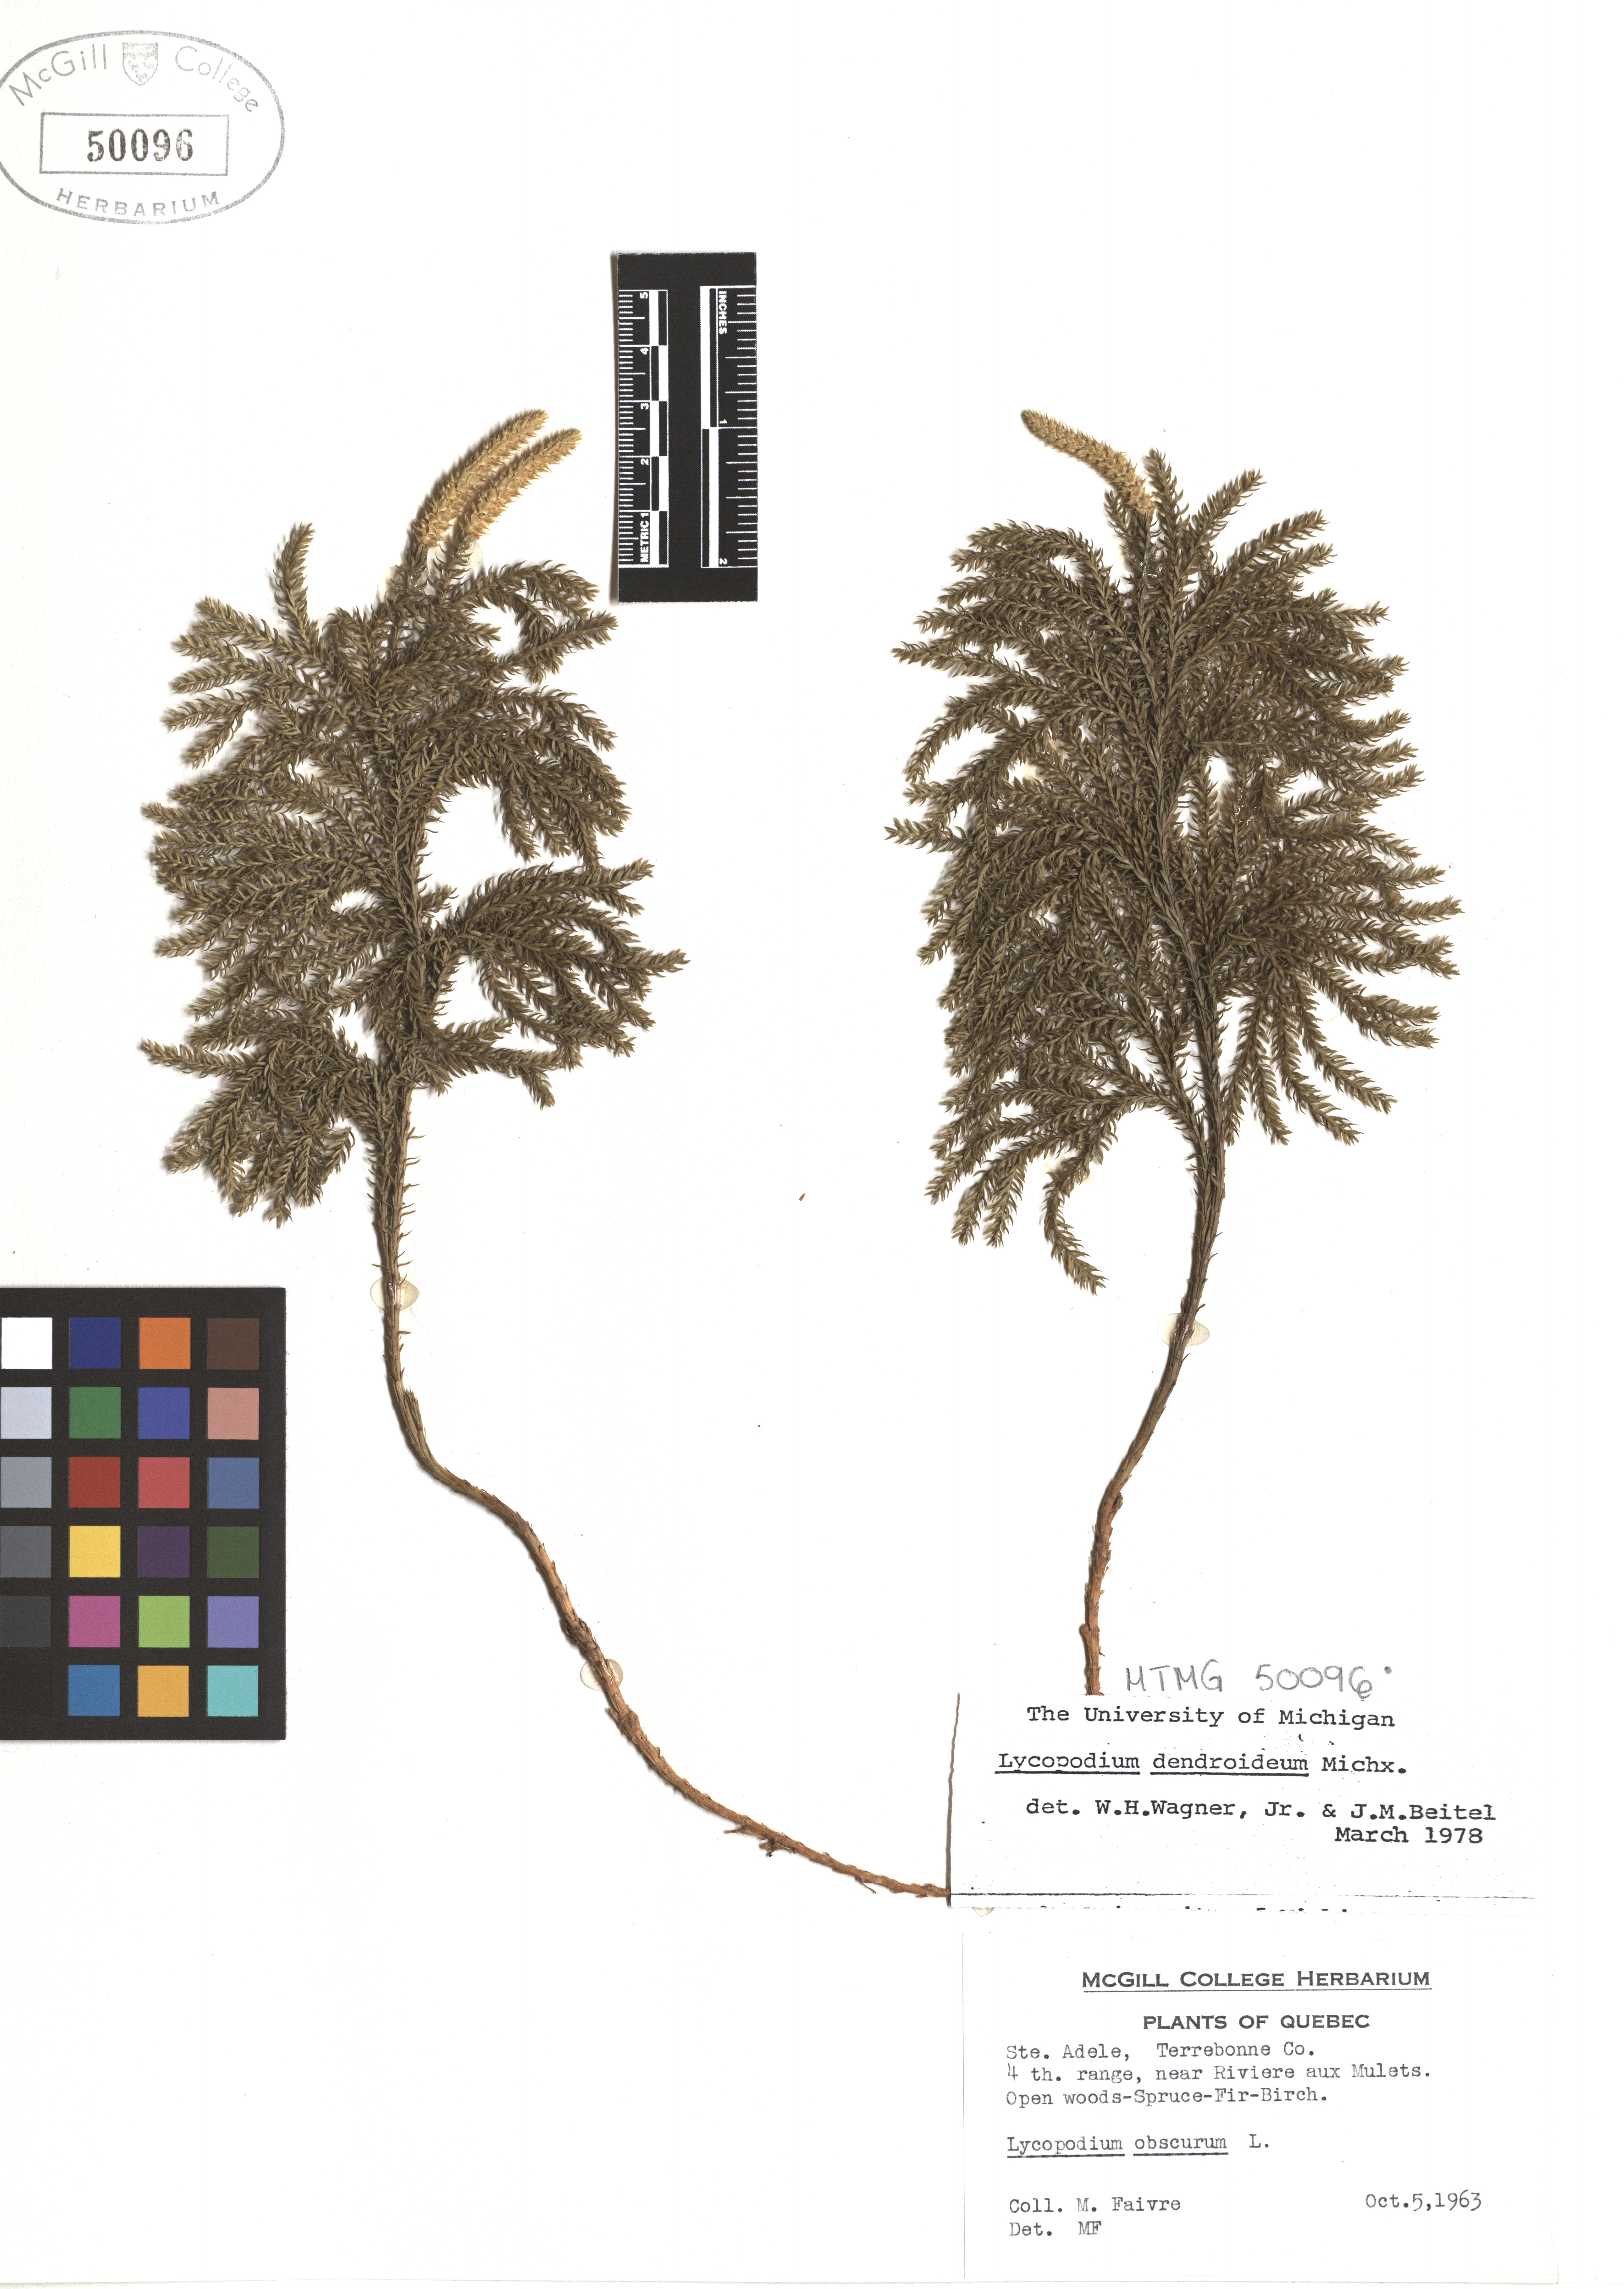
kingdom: Plantae
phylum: Tracheophyta
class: Lycopodiopsida
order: Lycopodiales
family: Lycopodiaceae
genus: Dendrolycopodium
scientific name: Dendrolycopodium dendroideum
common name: Northern tree-clubmoss
